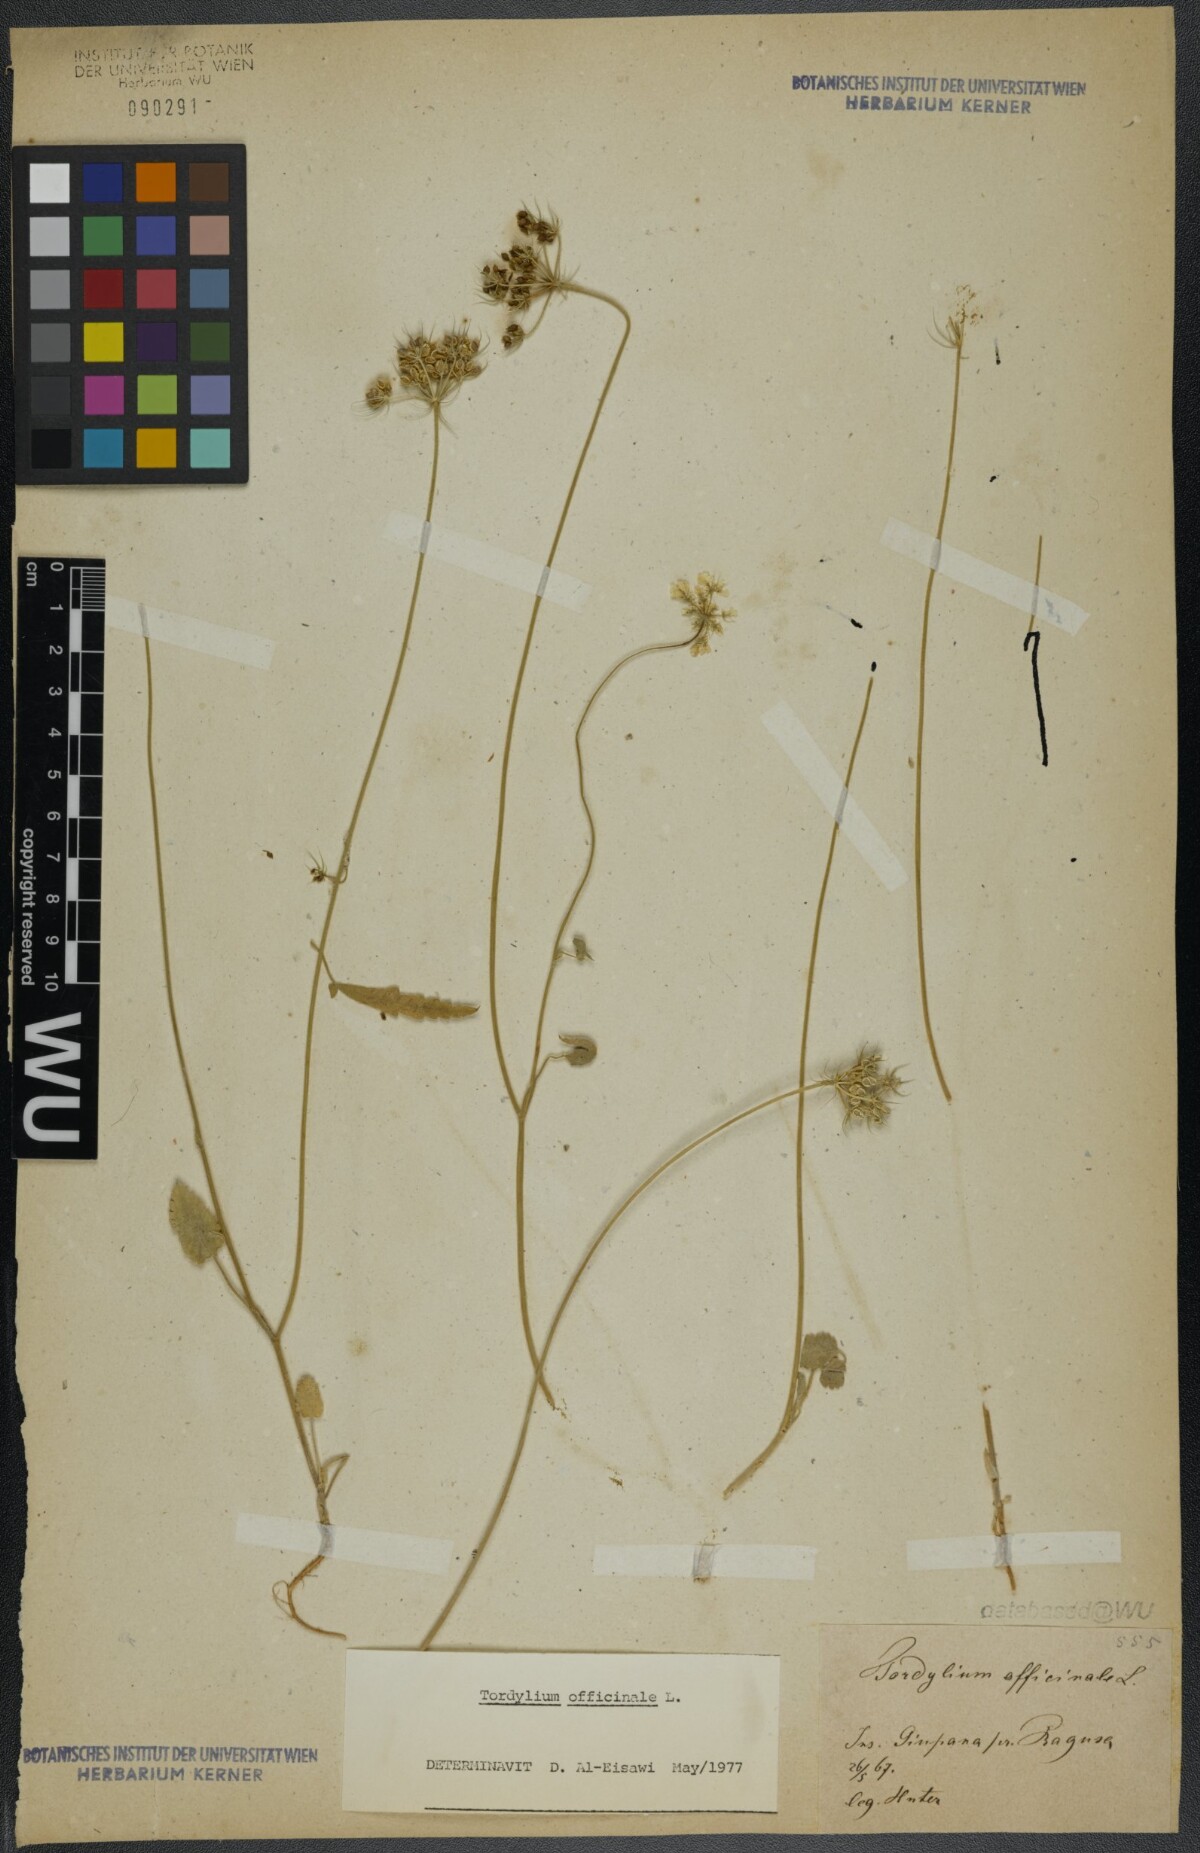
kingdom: Plantae
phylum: Tracheophyta
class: Magnoliopsida
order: Apiales
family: Apiaceae
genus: Tordylium
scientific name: Tordylium officinale
